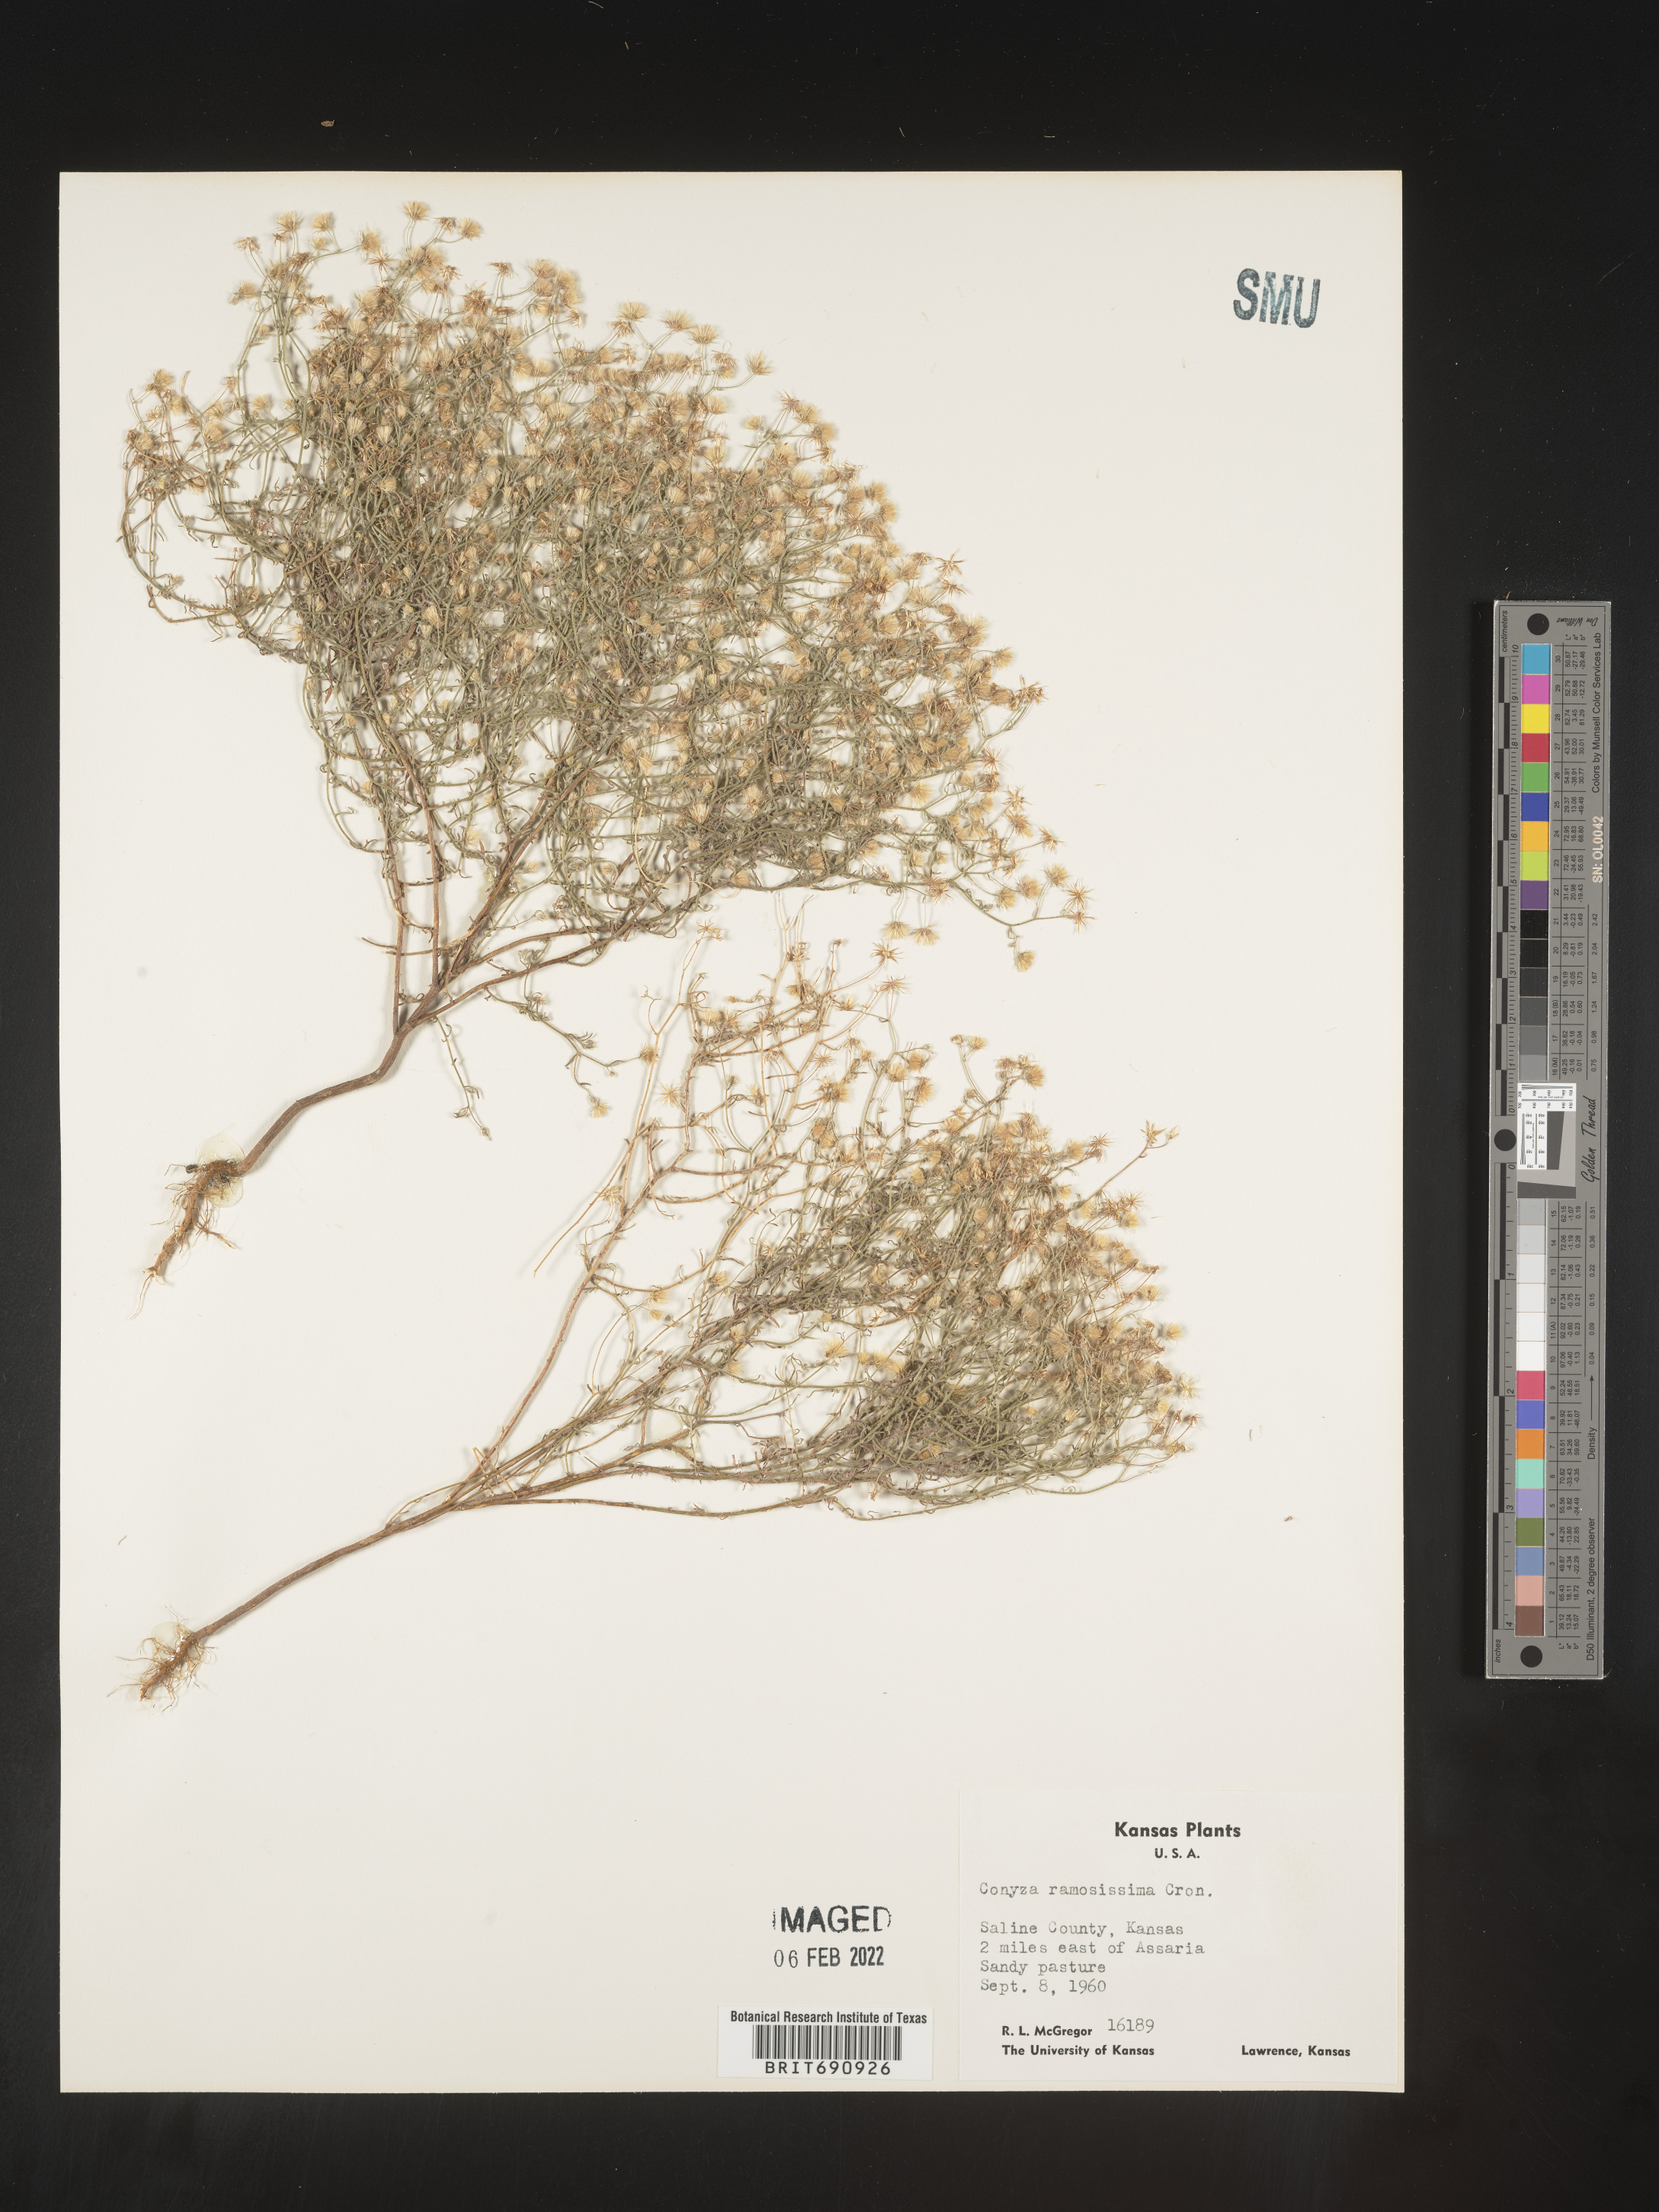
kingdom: Plantae
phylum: Tracheophyta
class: Magnoliopsida
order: Asterales
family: Asteraceae
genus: Erigeron
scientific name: Erigeron divaricatus
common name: Dwarf conyza
